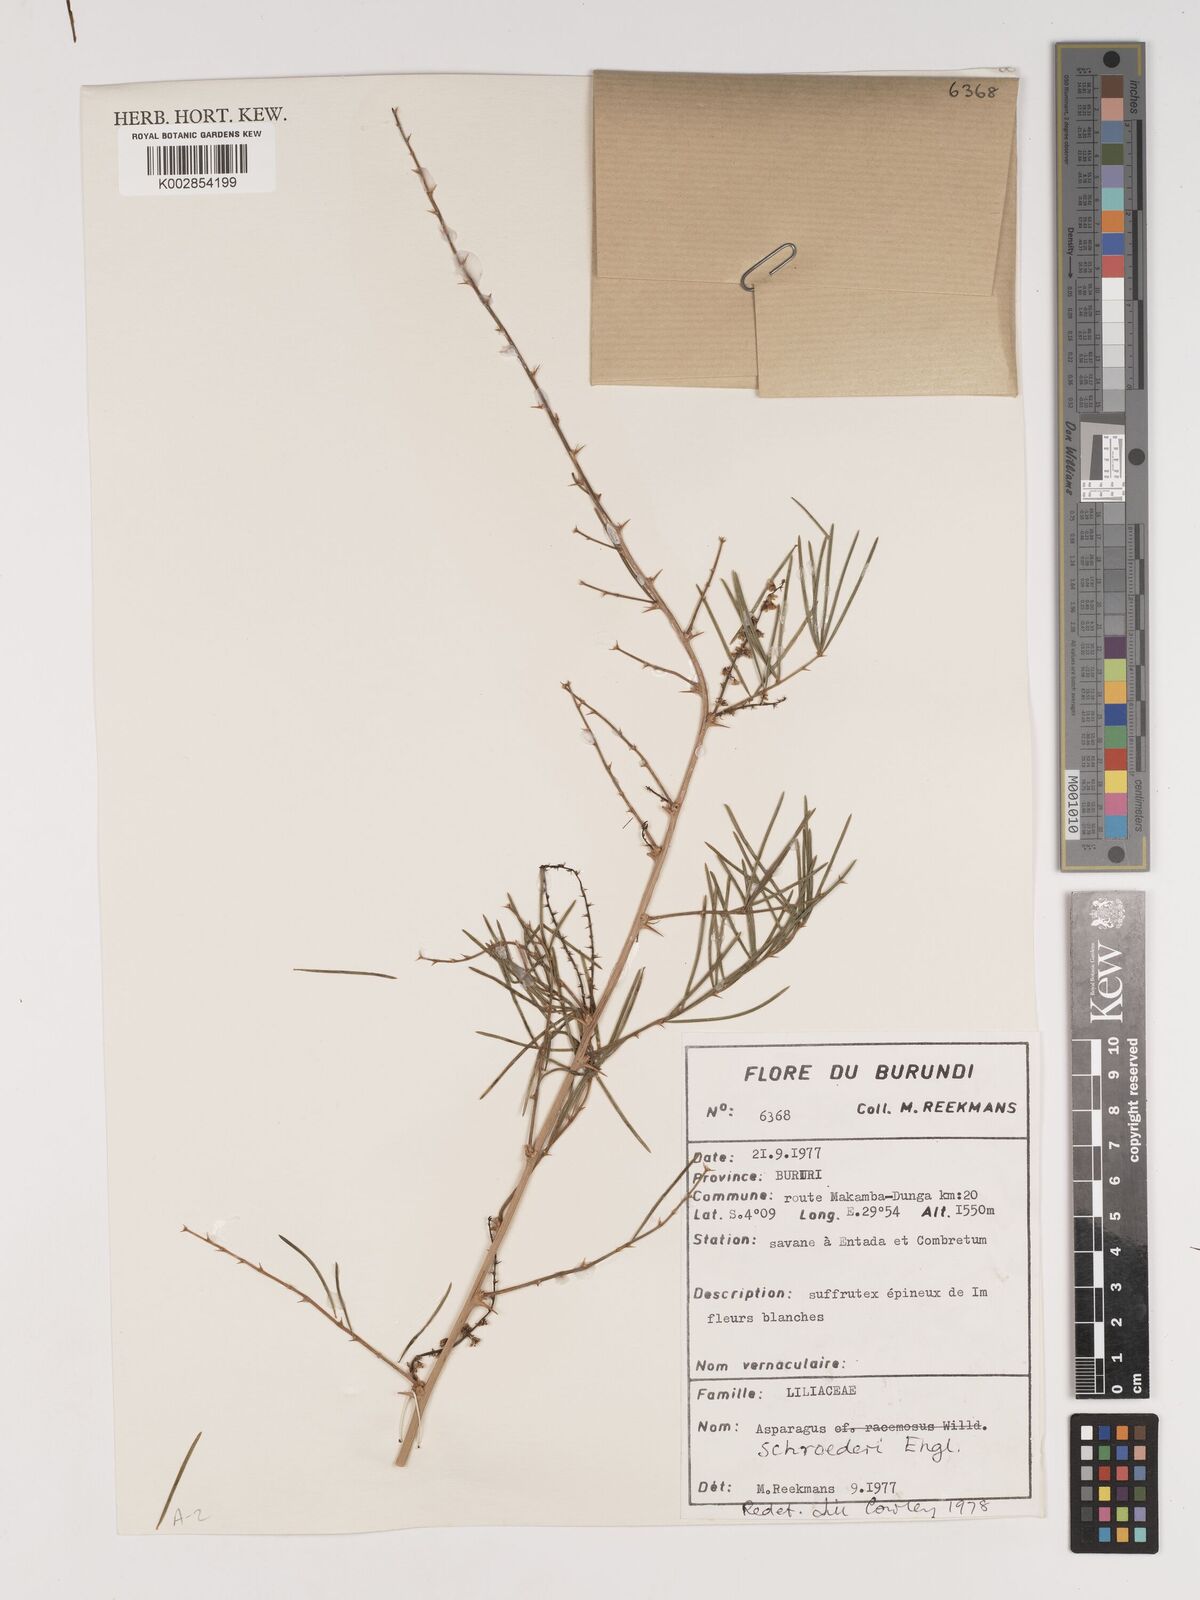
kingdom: Plantae
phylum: Tracheophyta
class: Liliopsida
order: Asparagales
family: Asparagaceae
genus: Asparagus
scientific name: Asparagus schroederi
